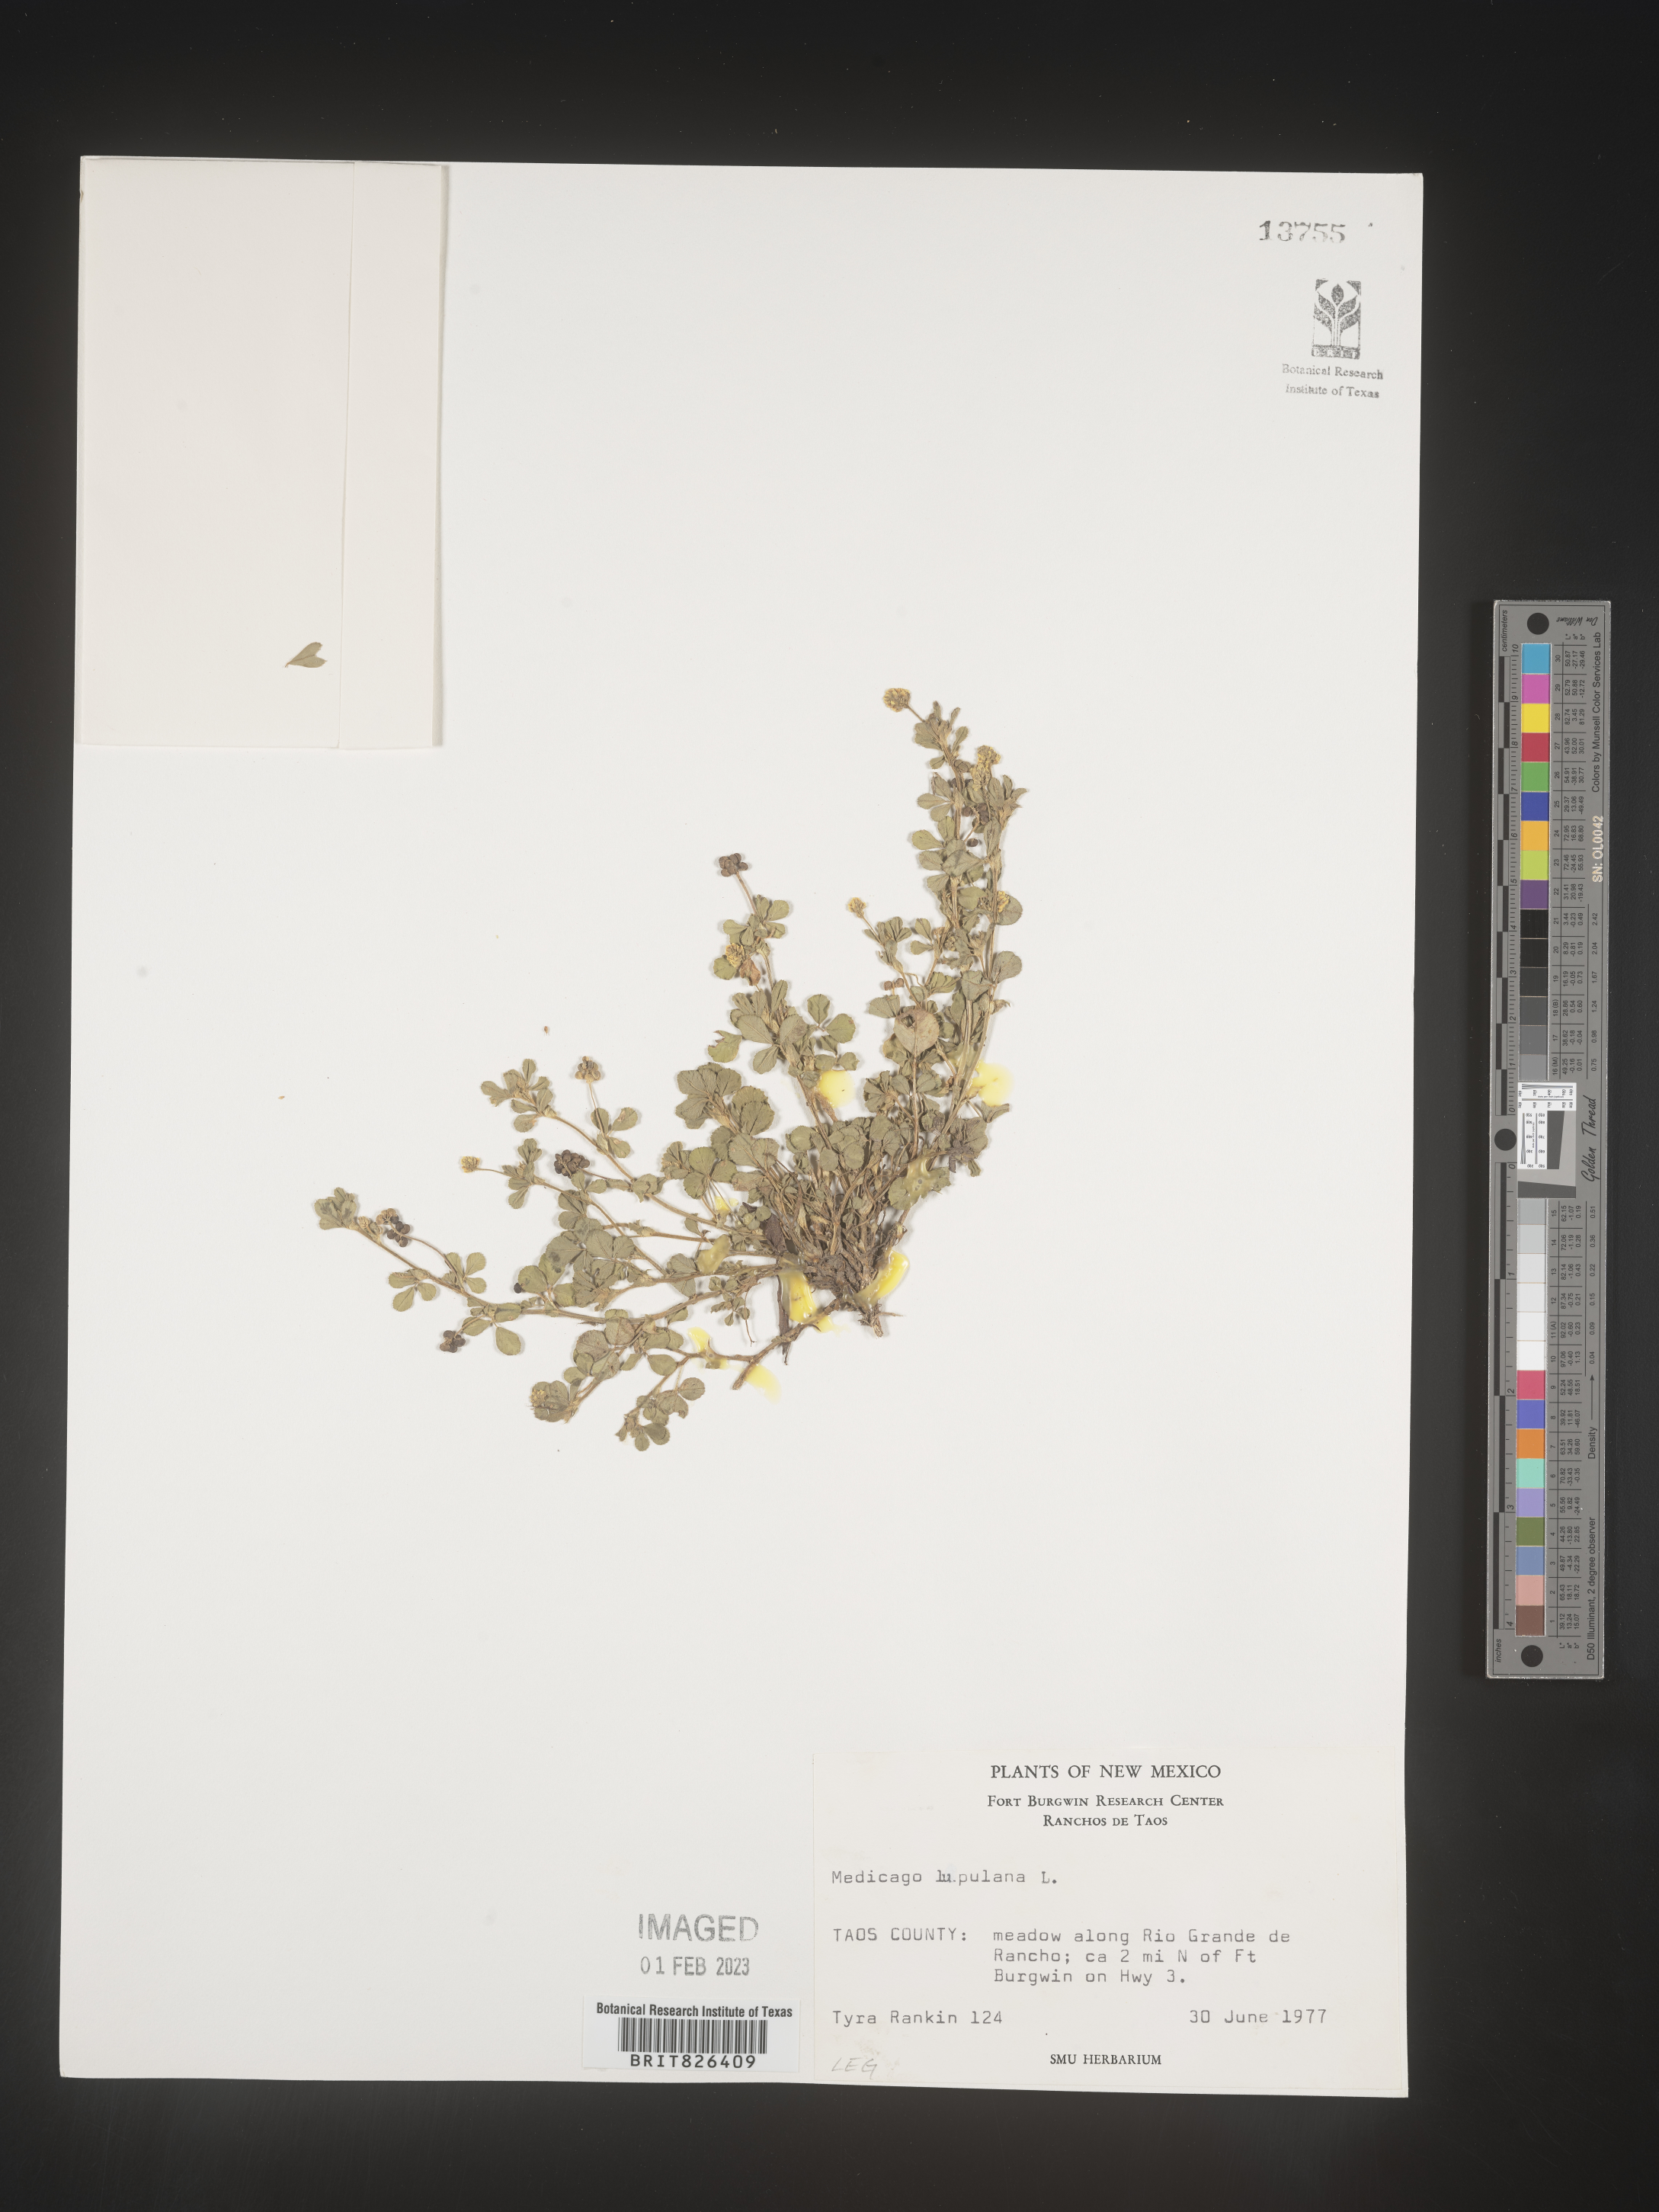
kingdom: Plantae
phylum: Tracheophyta
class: Magnoliopsida
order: Fabales
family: Fabaceae
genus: Medicago
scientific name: Medicago lupulina
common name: Black medick
